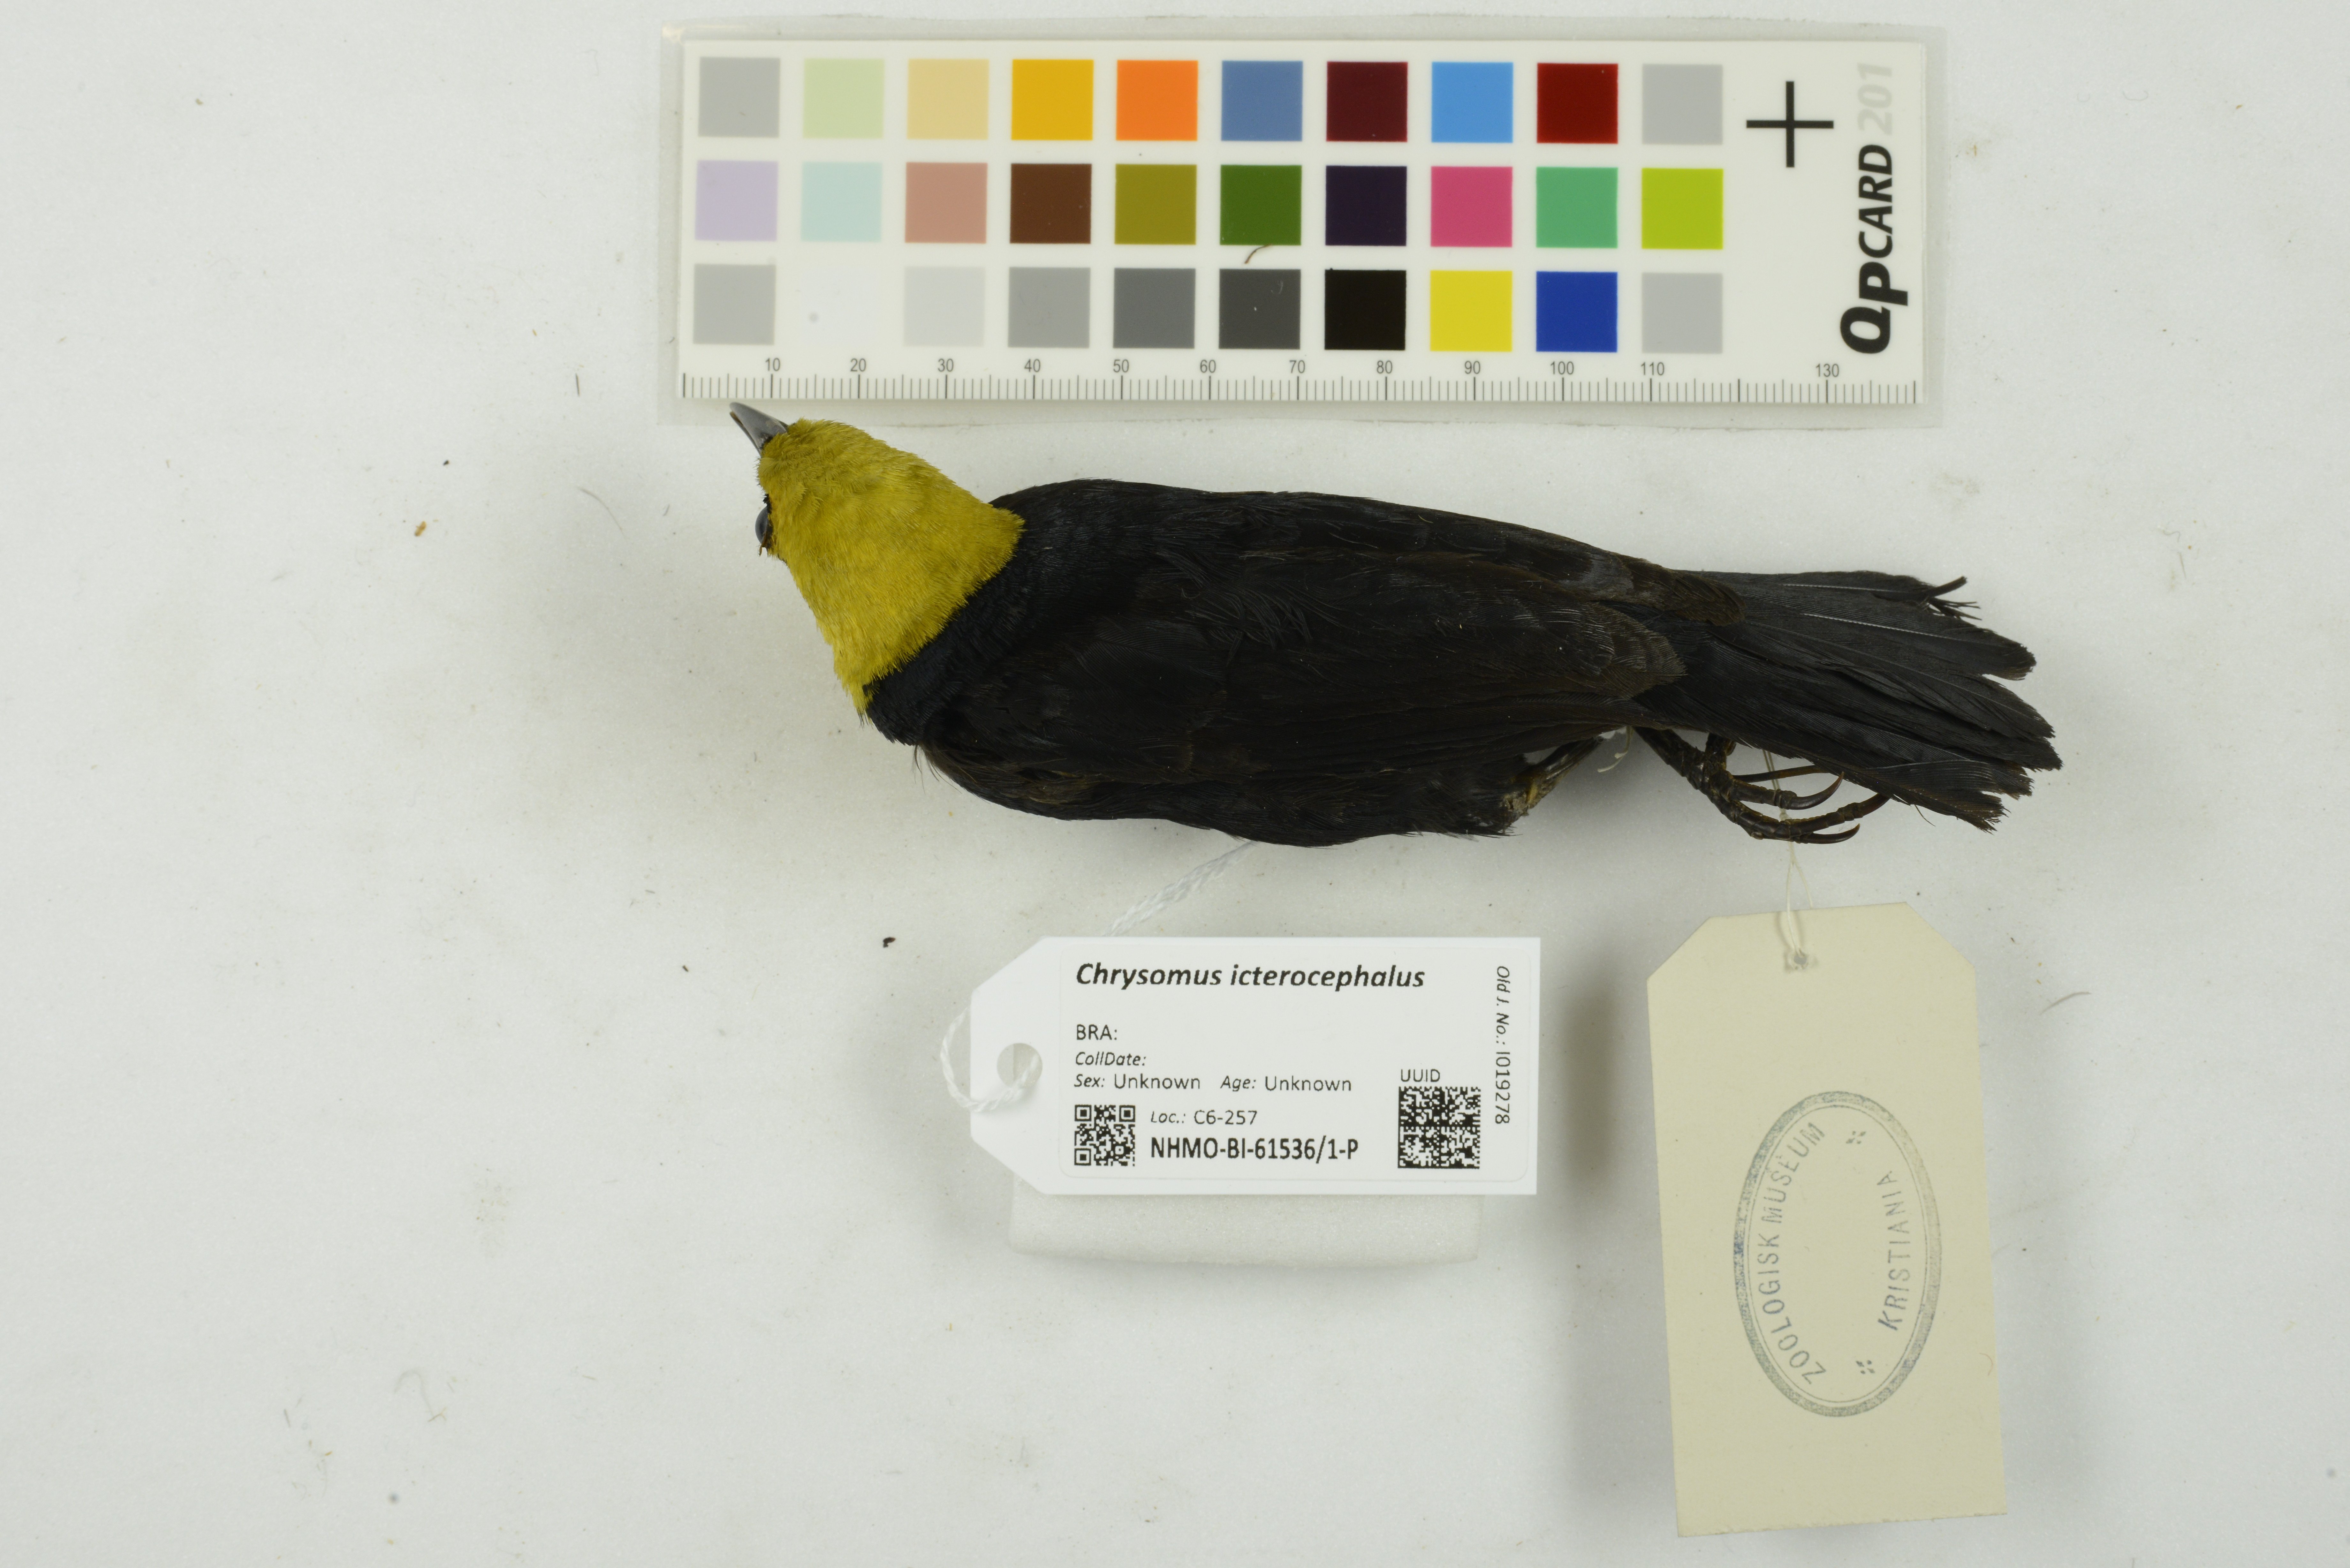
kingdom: Animalia
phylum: Chordata
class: Aves
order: Passeriformes
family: Icteridae
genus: Chrysomus
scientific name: Chrysomus icterocephalus
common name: Yellow-hooded blackbird
